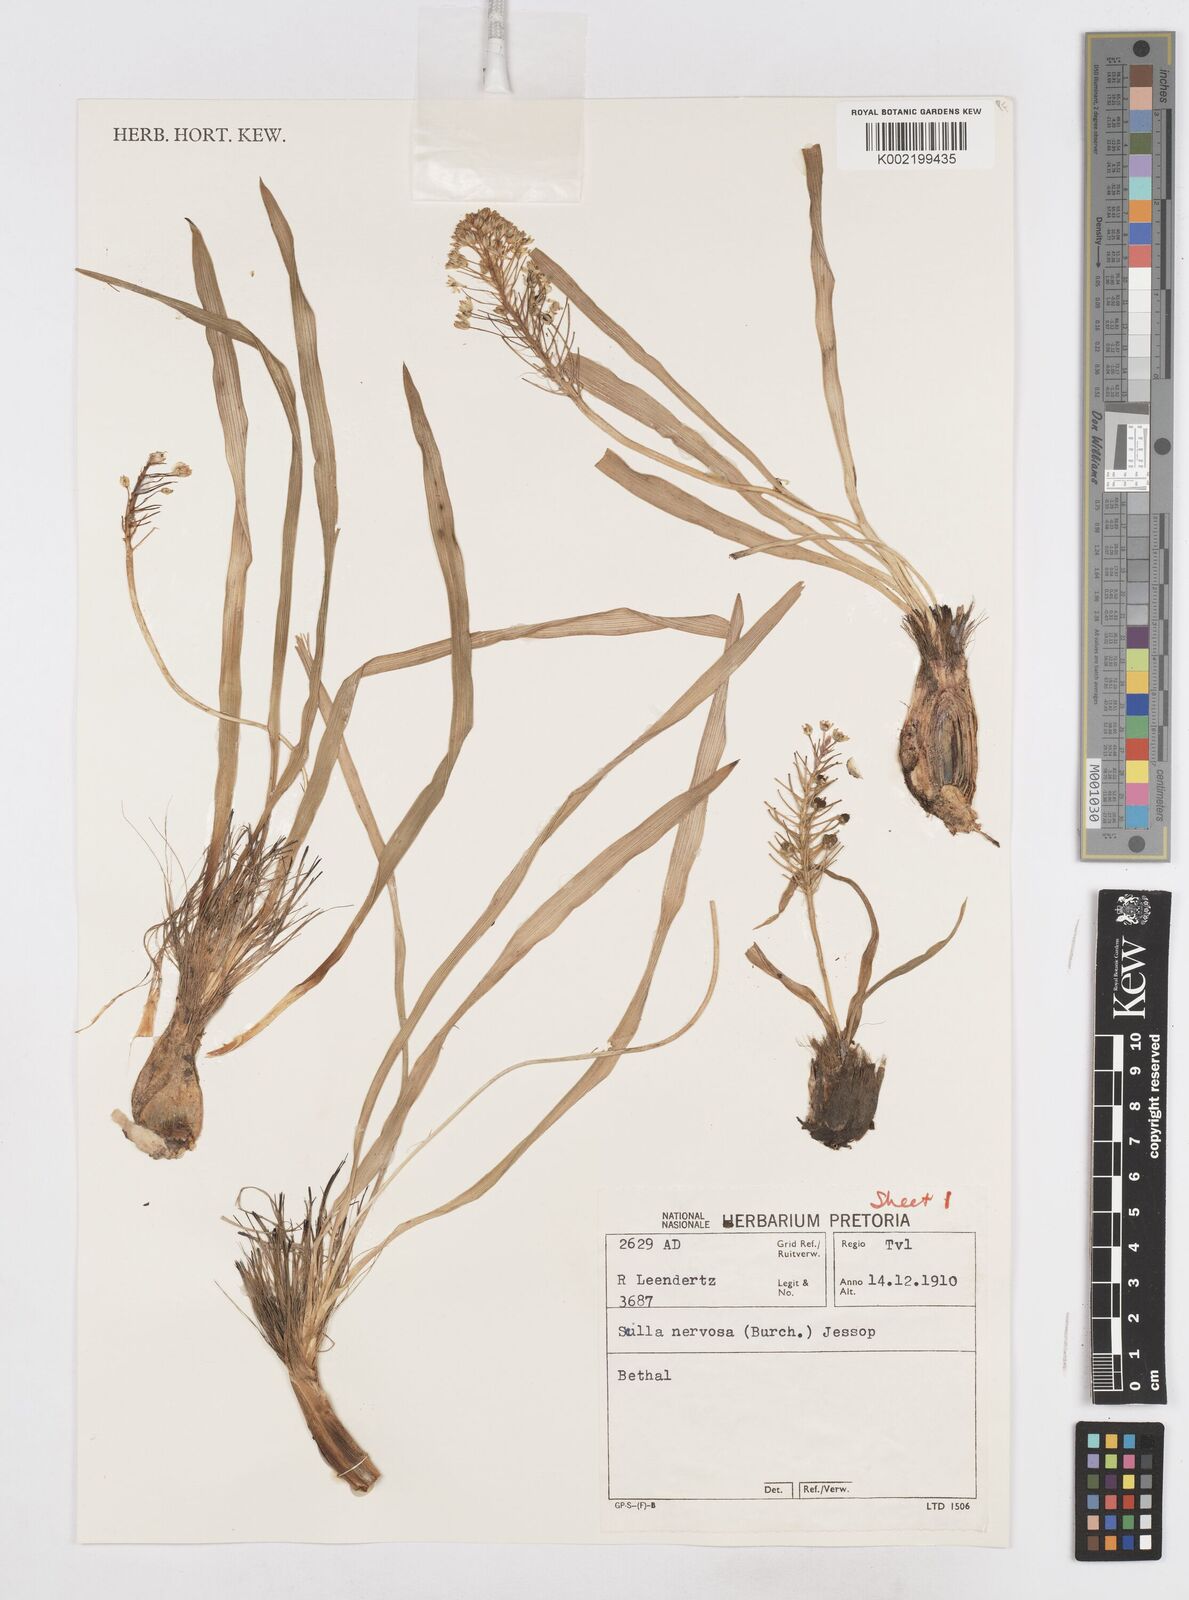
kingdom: Plantae
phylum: Tracheophyta
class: Liliopsida
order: Asparagales
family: Asparagaceae
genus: Schizocarphus
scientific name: Schizocarphus nervosus
